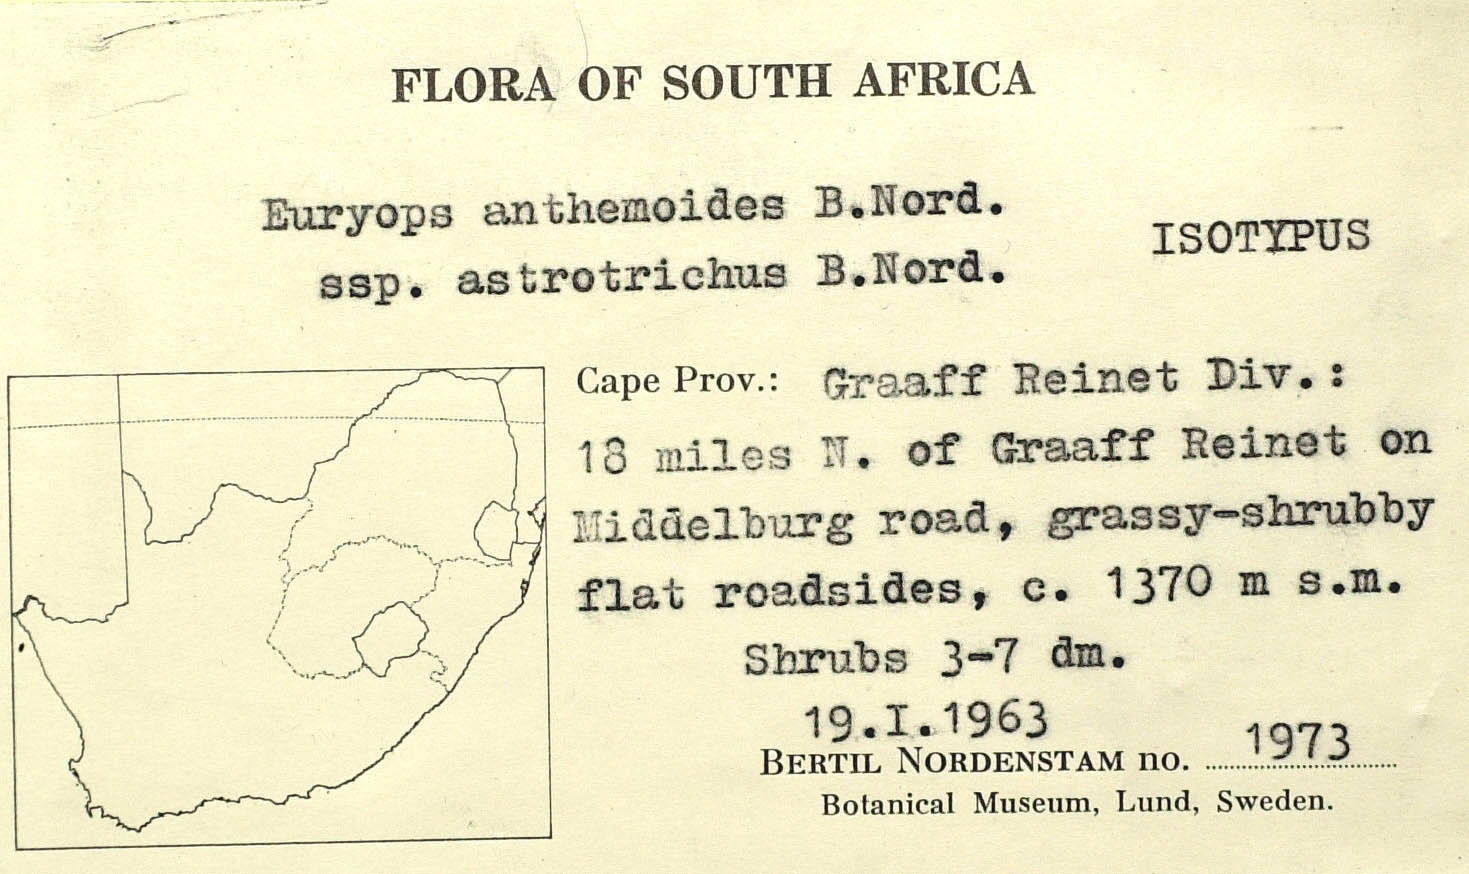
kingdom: Plantae
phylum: Tracheophyta
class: Magnoliopsida
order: Asterales
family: Asteraceae
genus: Euryops
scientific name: Euryops anthemoides
